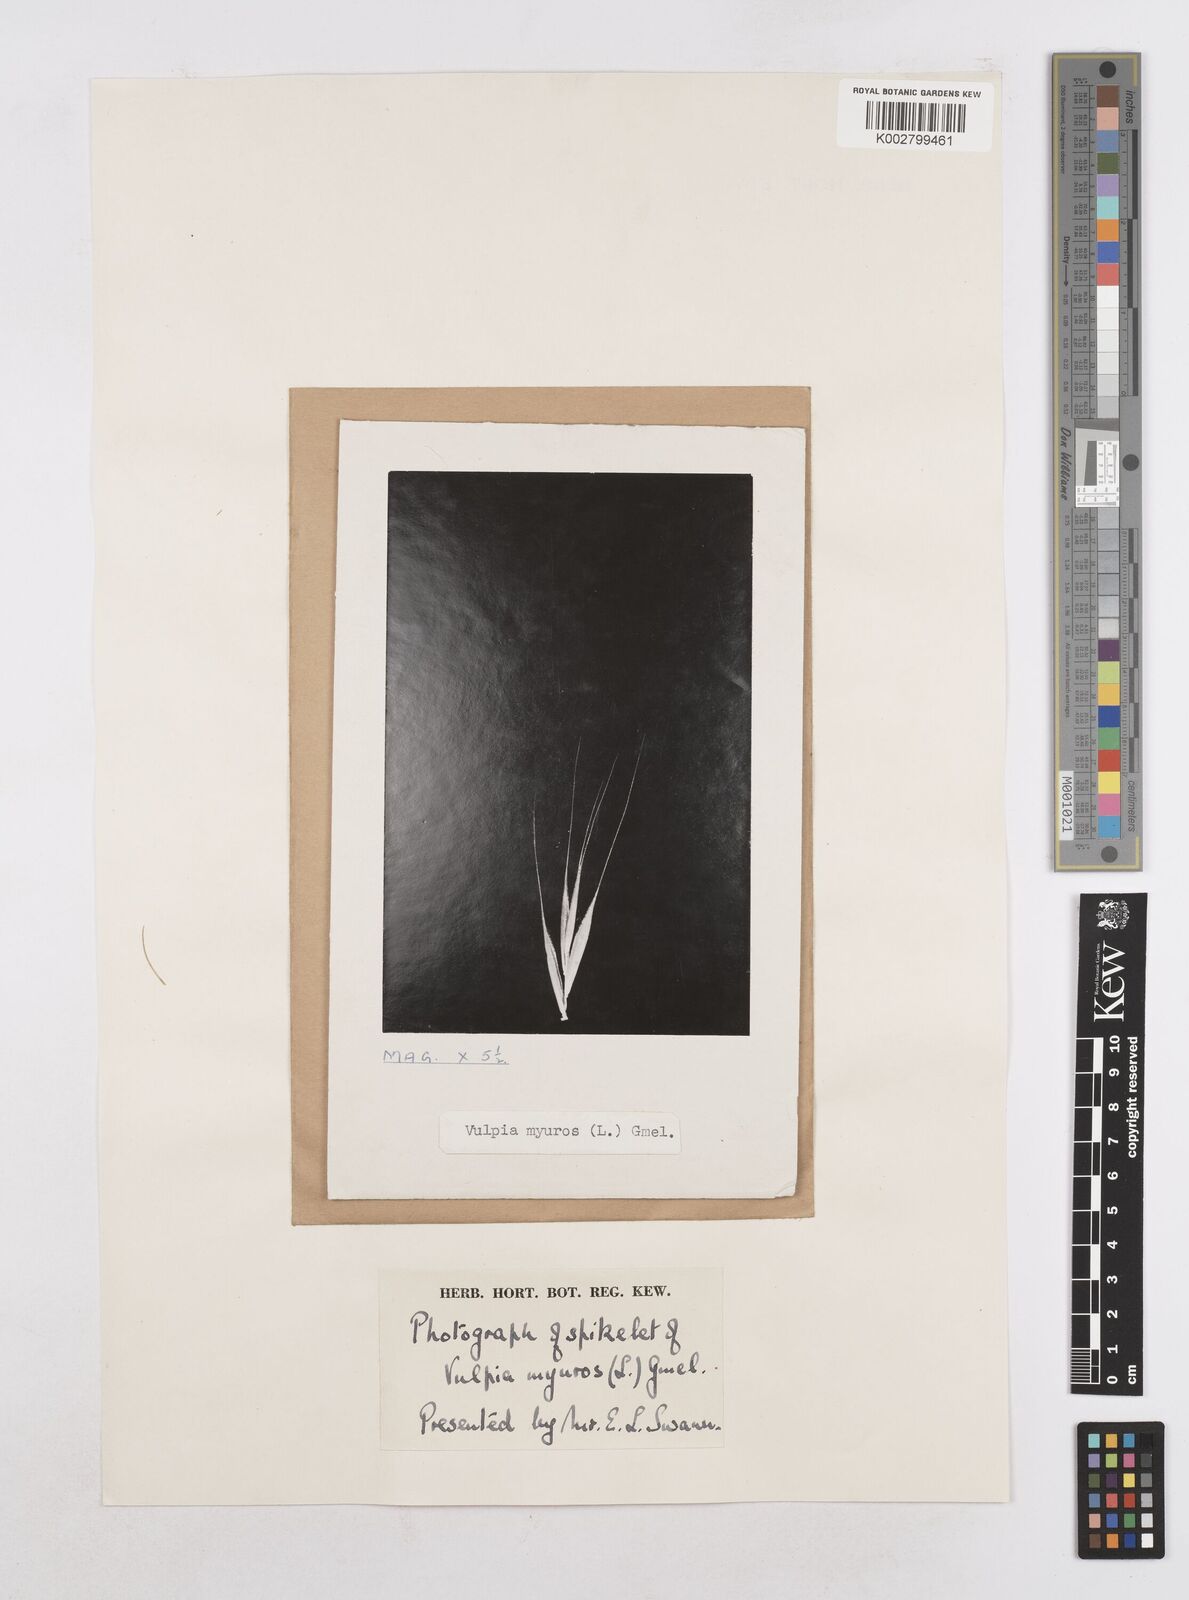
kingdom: Plantae
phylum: Tracheophyta
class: Liliopsida
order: Poales
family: Poaceae
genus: Festuca
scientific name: Festuca myuros
